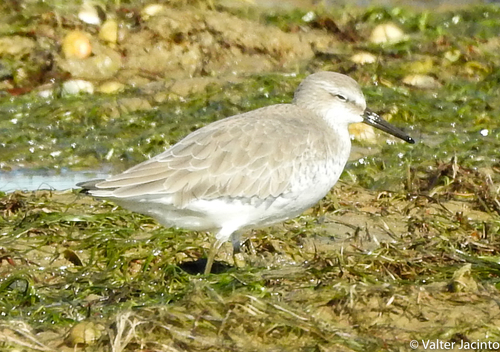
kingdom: Animalia
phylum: Chordata
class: Aves
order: Charadriiformes
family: Scolopacidae
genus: Calidris
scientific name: Calidris canutus
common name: Red knot
